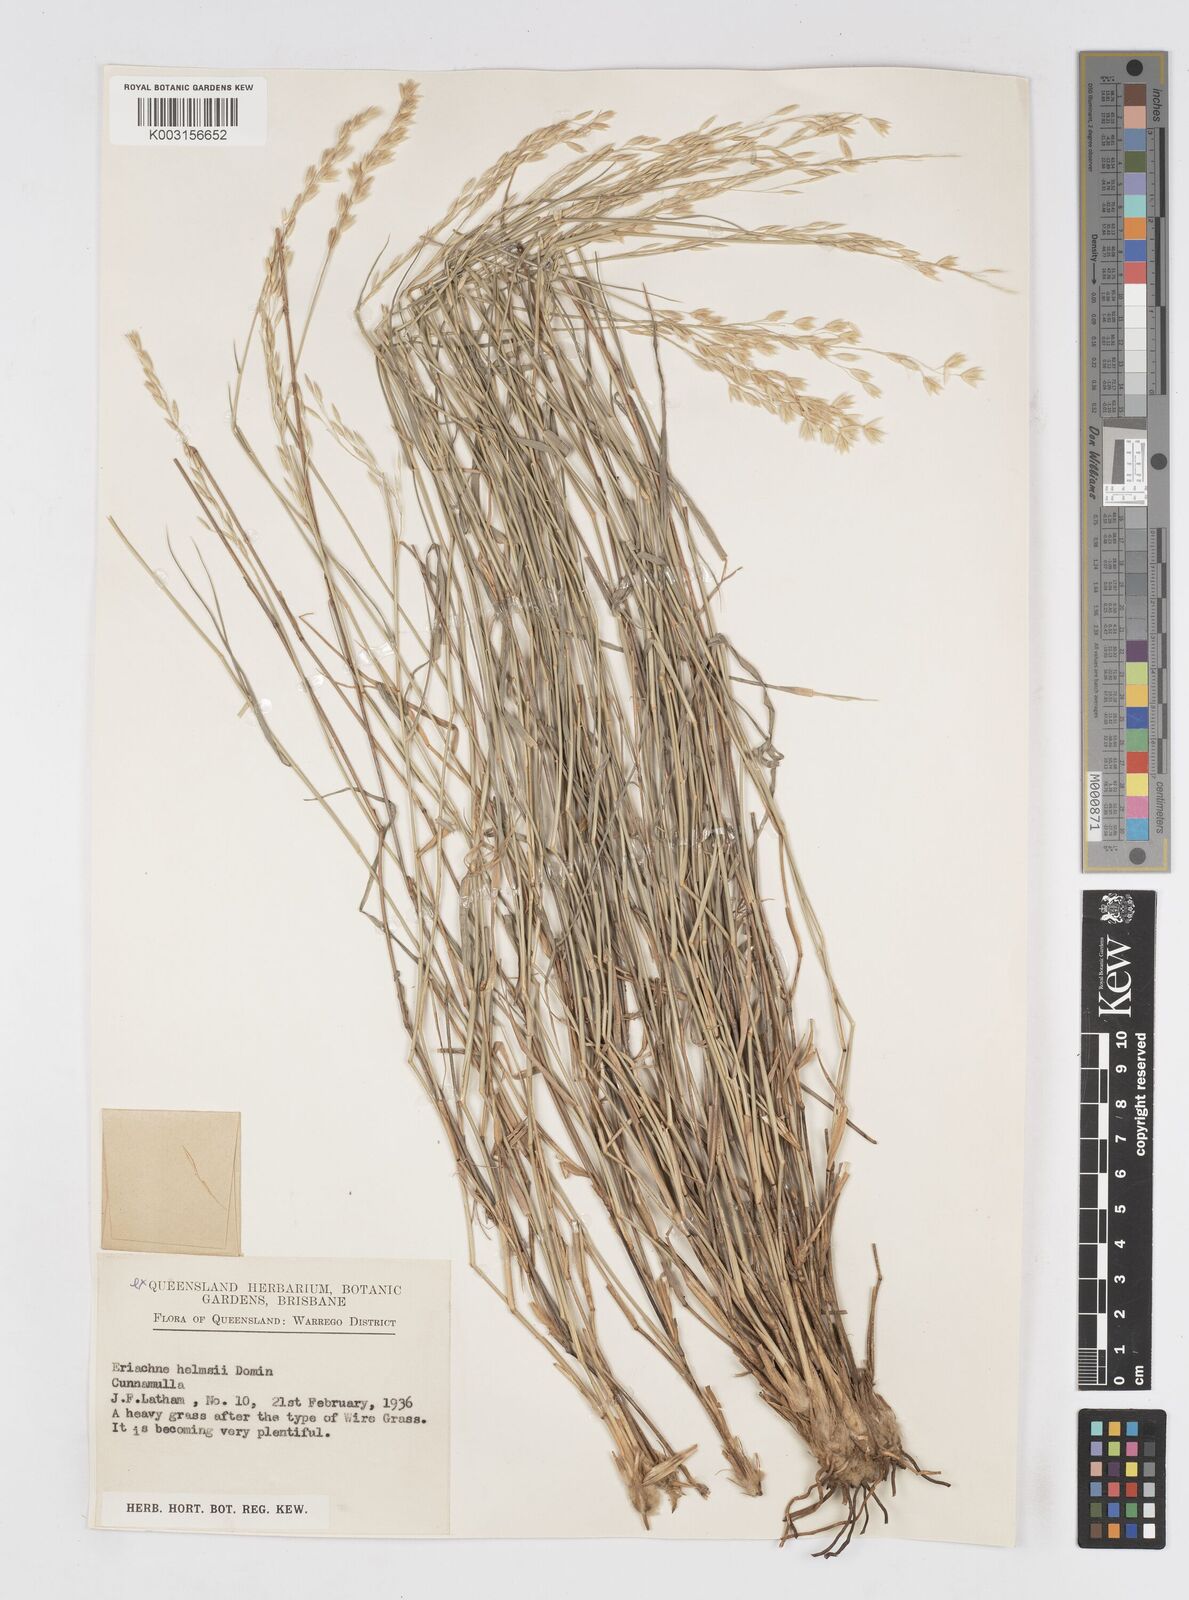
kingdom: Plantae
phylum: Tracheophyta
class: Liliopsida
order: Poales
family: Poaceae
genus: Eriachne
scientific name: Eriachne helmsii
